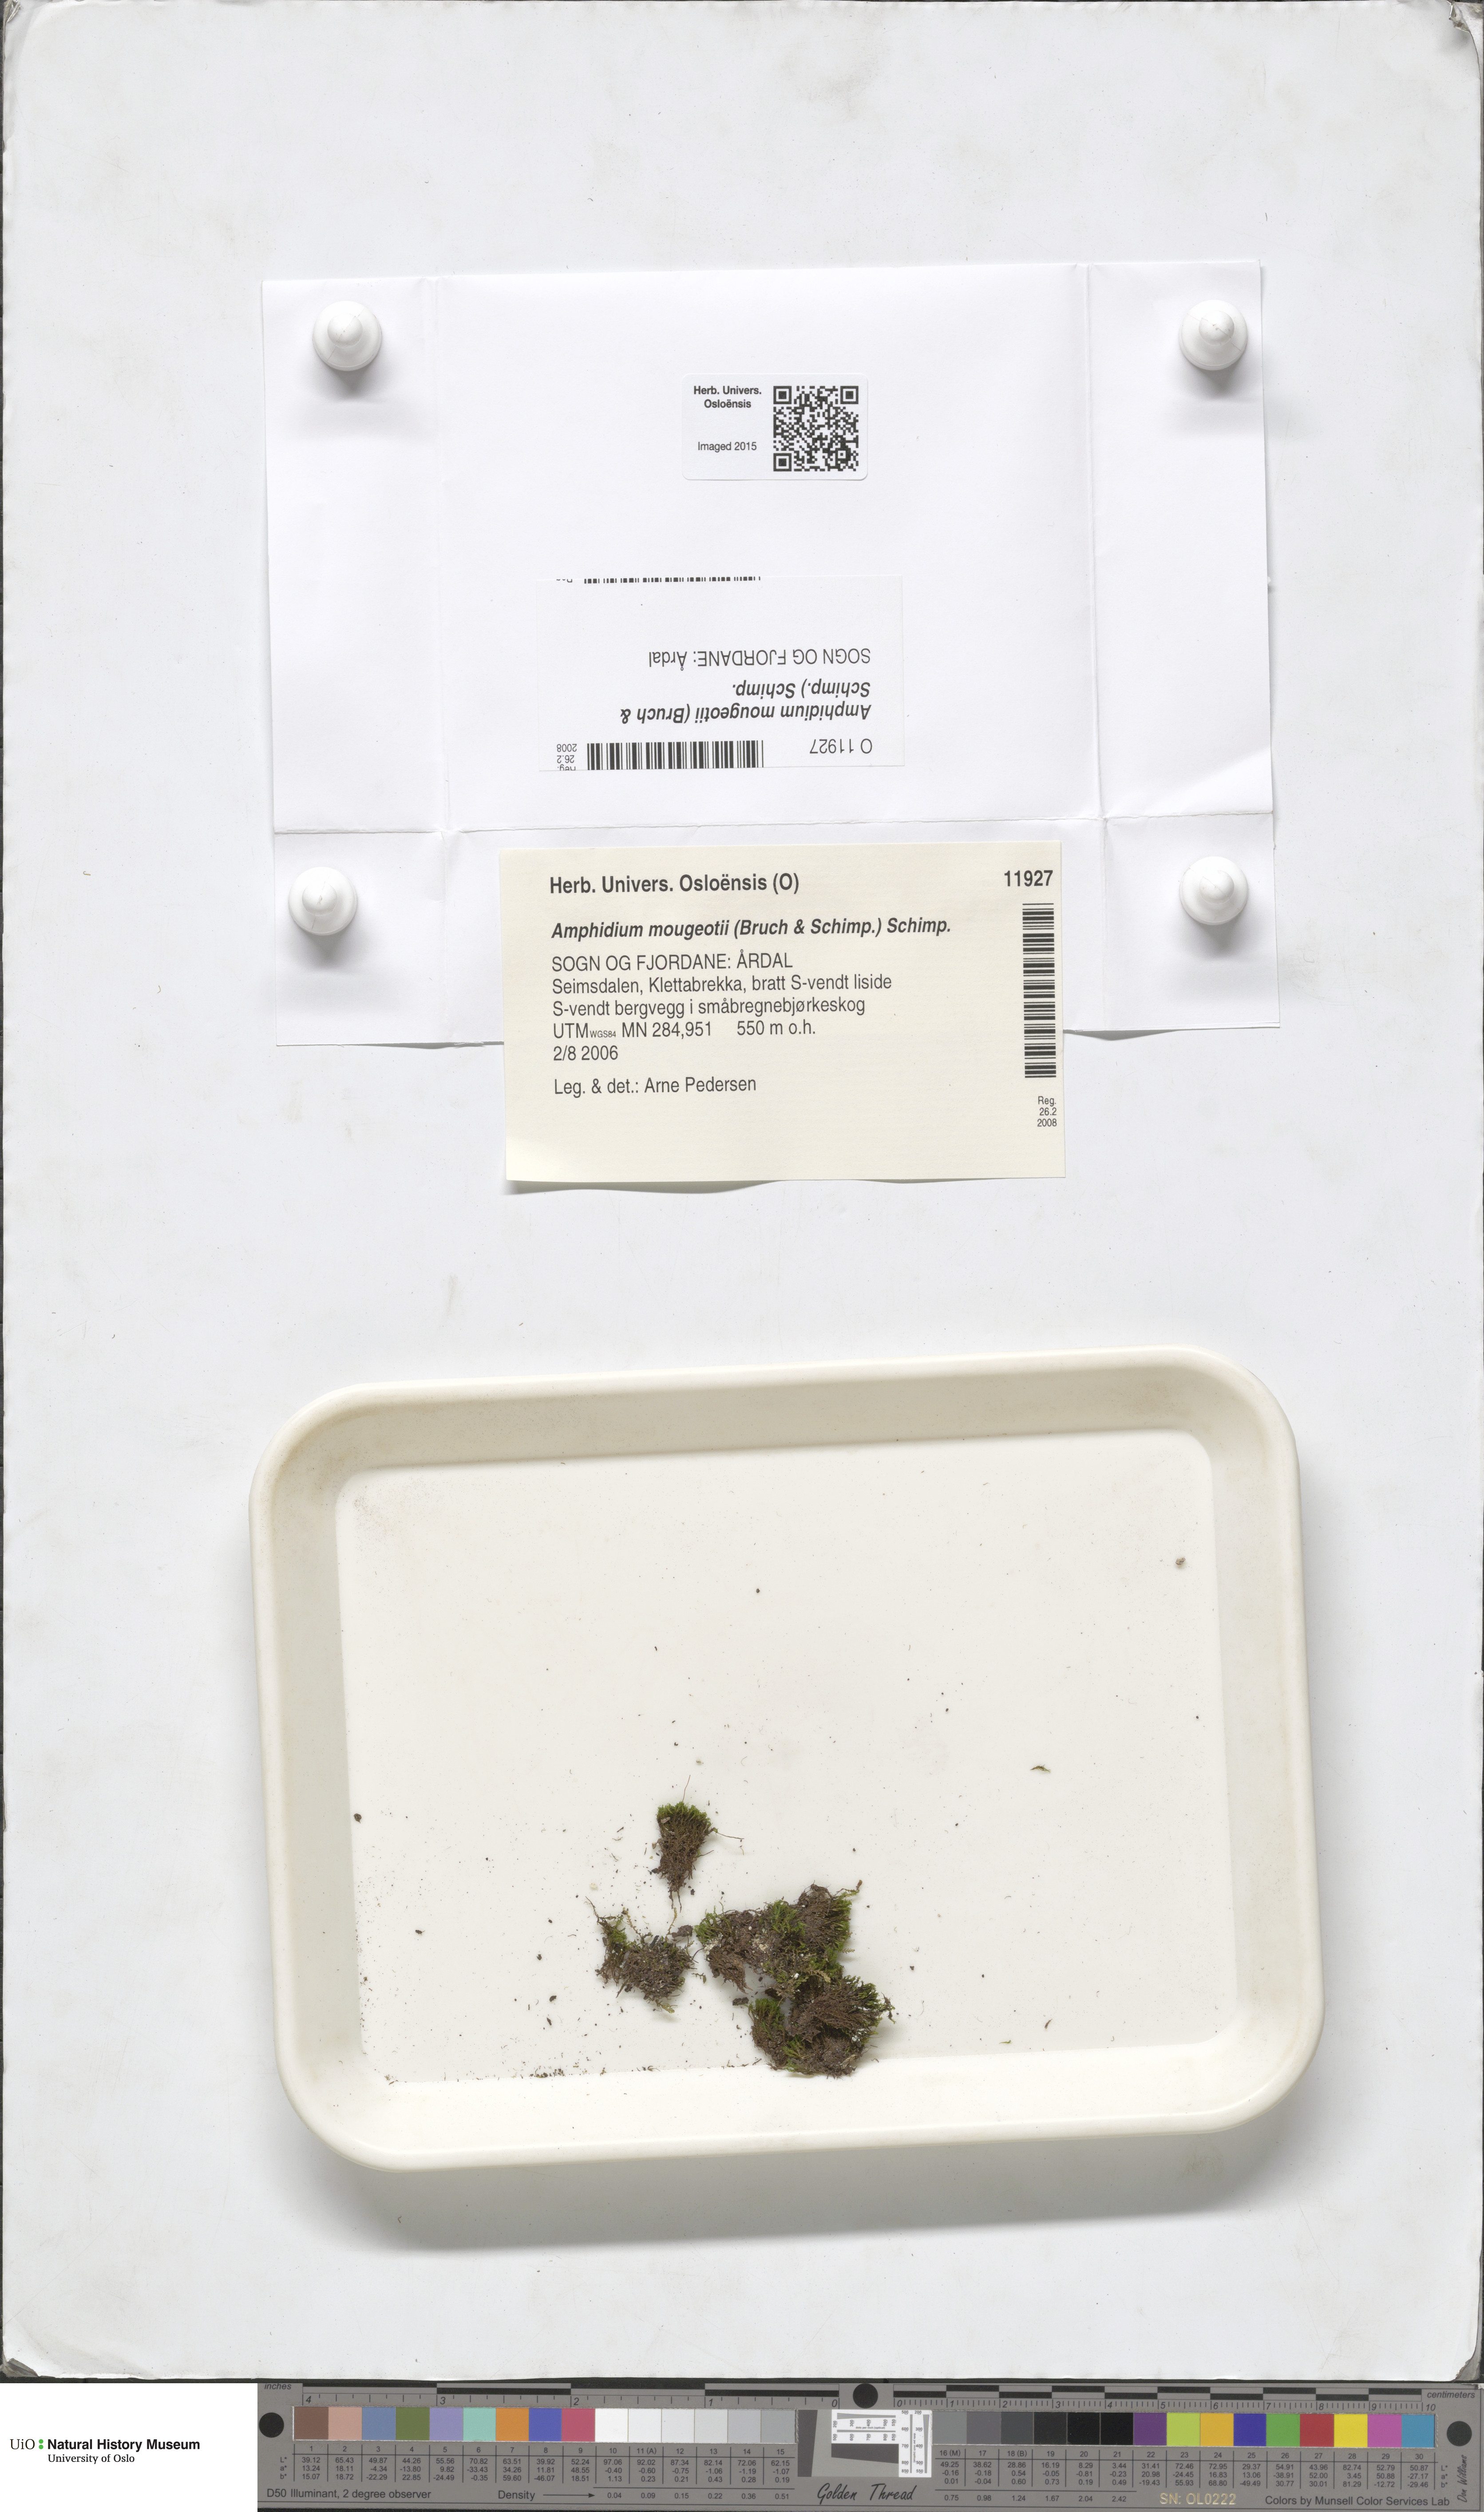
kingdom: Plantae
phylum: Bryophyta
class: Bryopsida
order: Dicranales
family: Amphidiaceae
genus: Amphidium
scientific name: Amphidium mougeotii
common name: Mougeot's yoke moss
